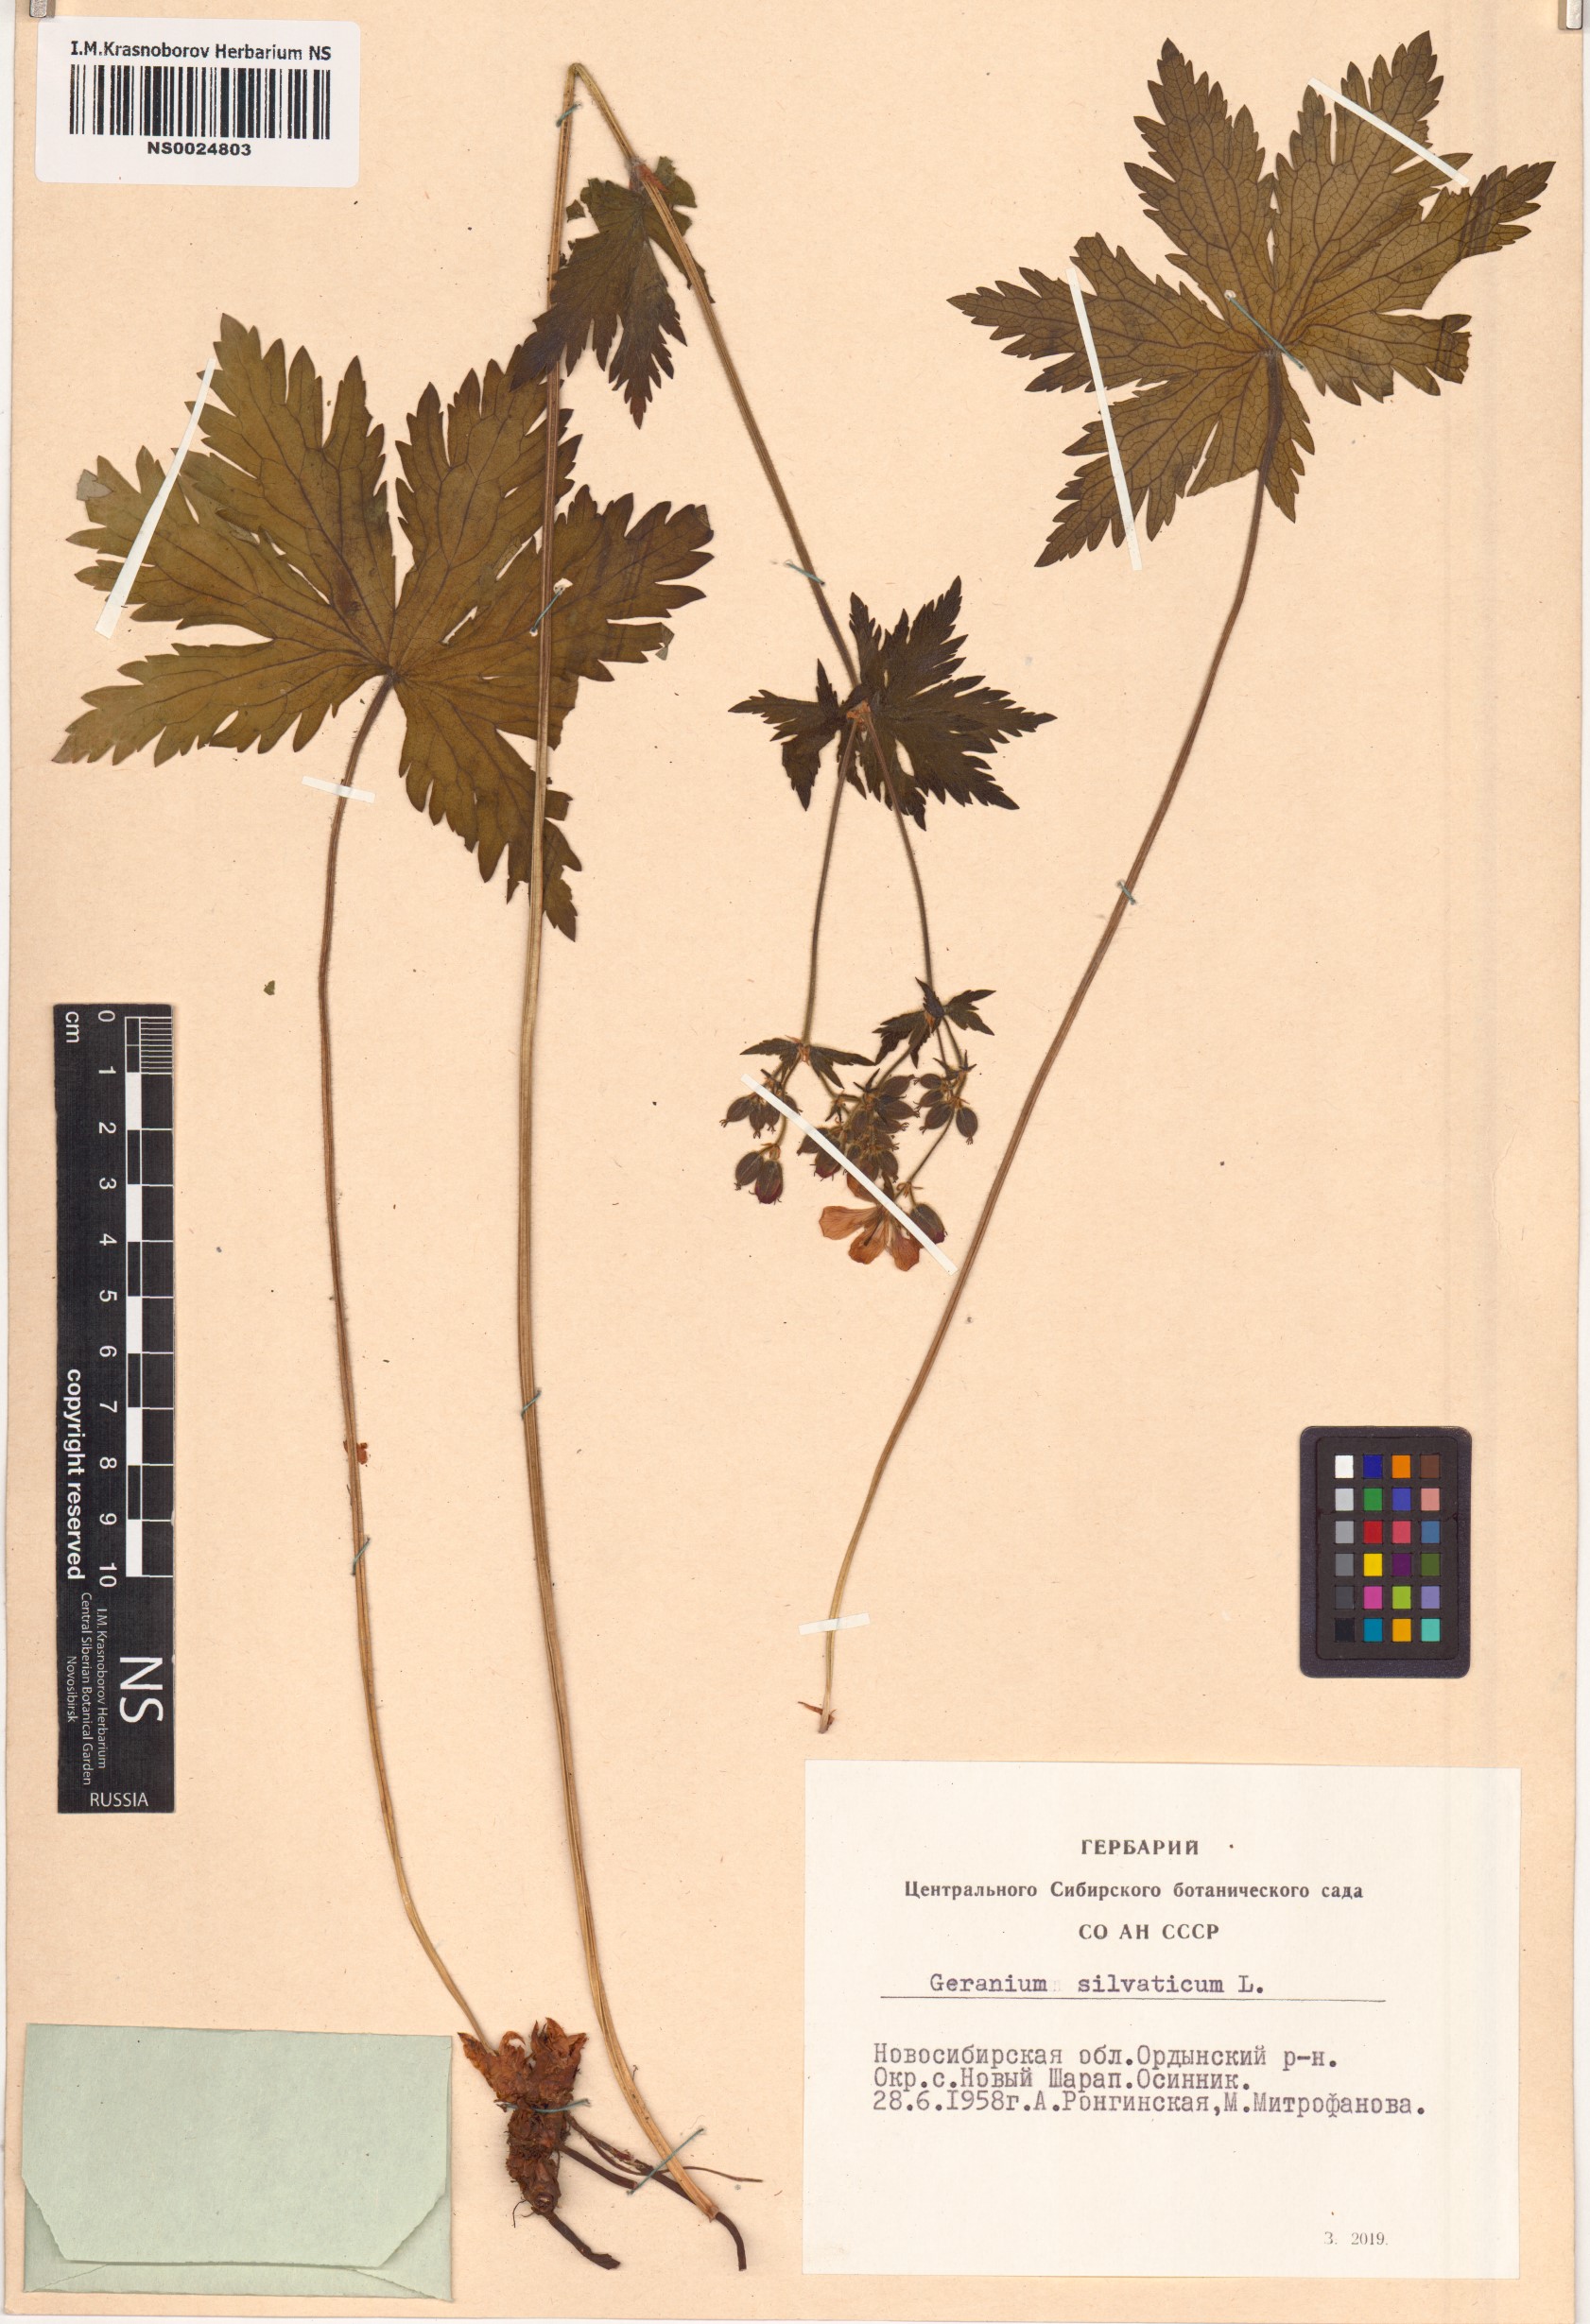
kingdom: Plantae
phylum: Tracheophyta
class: Magnoliopsida
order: Geraniales
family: Geraniaceae
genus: Geranium
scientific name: Geranium sylvaticum
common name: Wood crane's-bill
